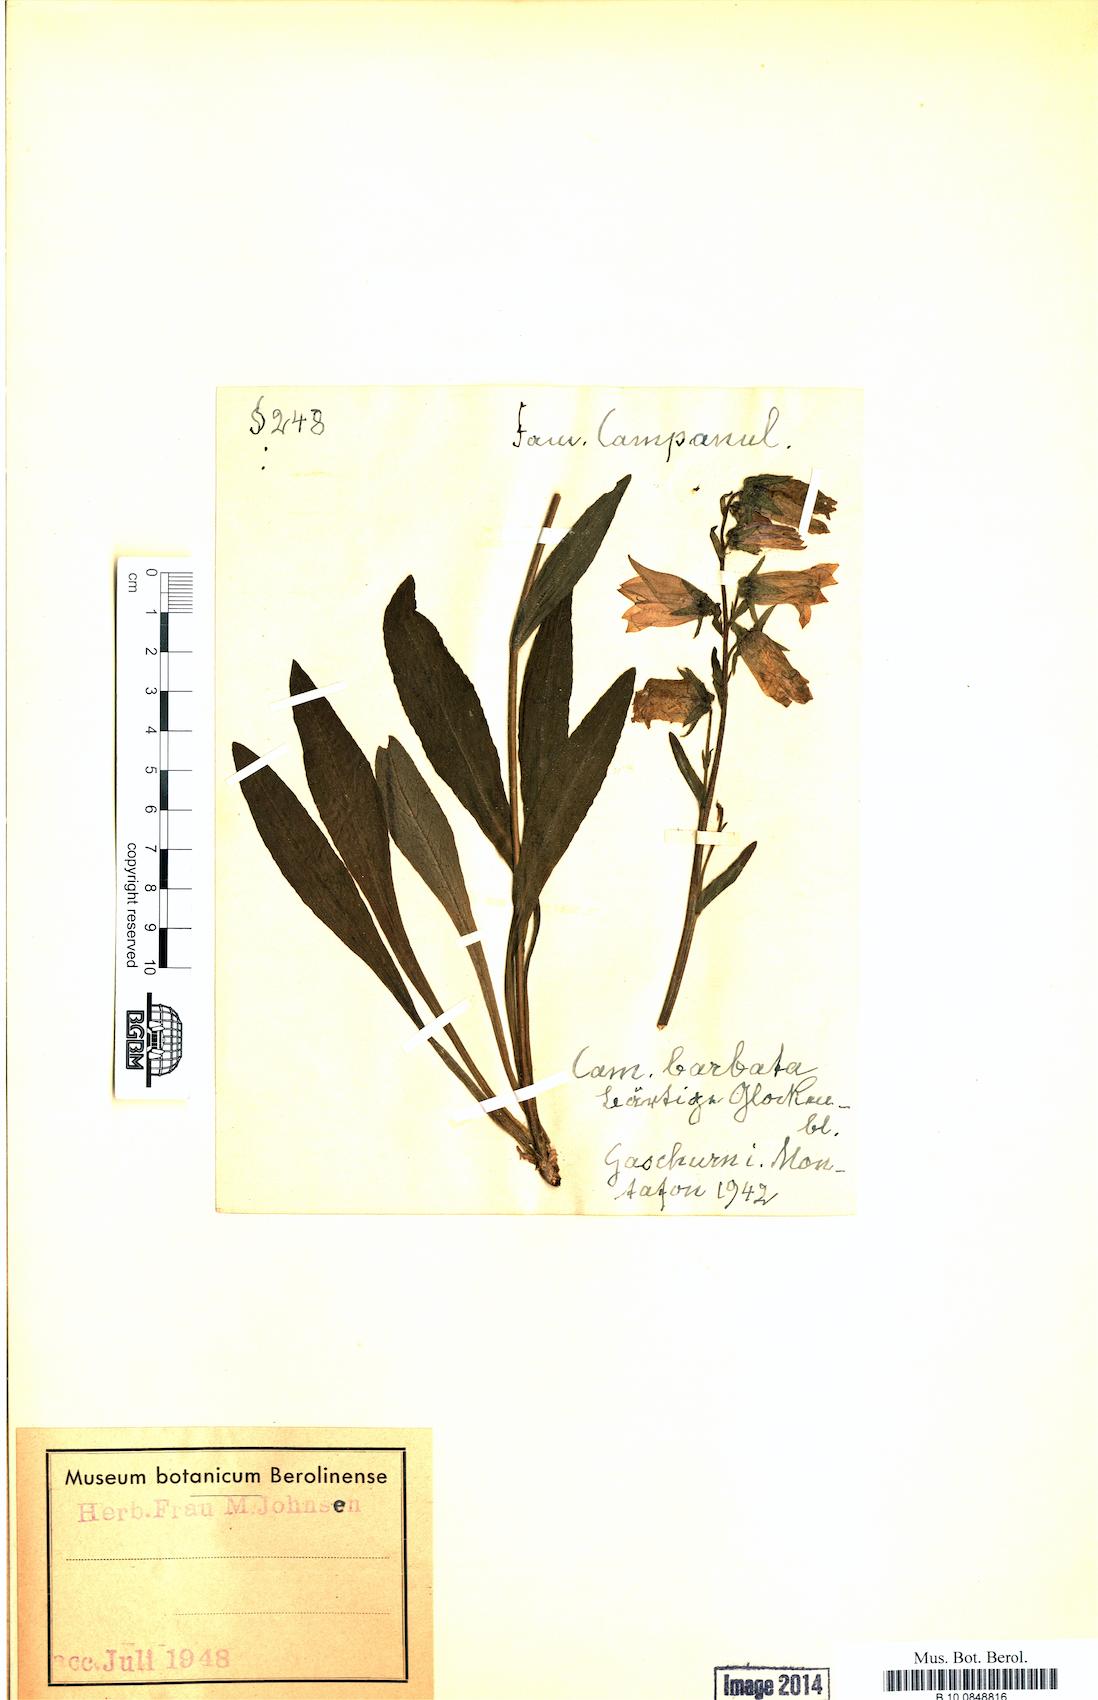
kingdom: Plantae
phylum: Tracheophyta
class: Magnoliopsida
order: Asterales
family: Campanulaceae
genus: Campanula
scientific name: Campanula barbata
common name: Bearded bellflower
